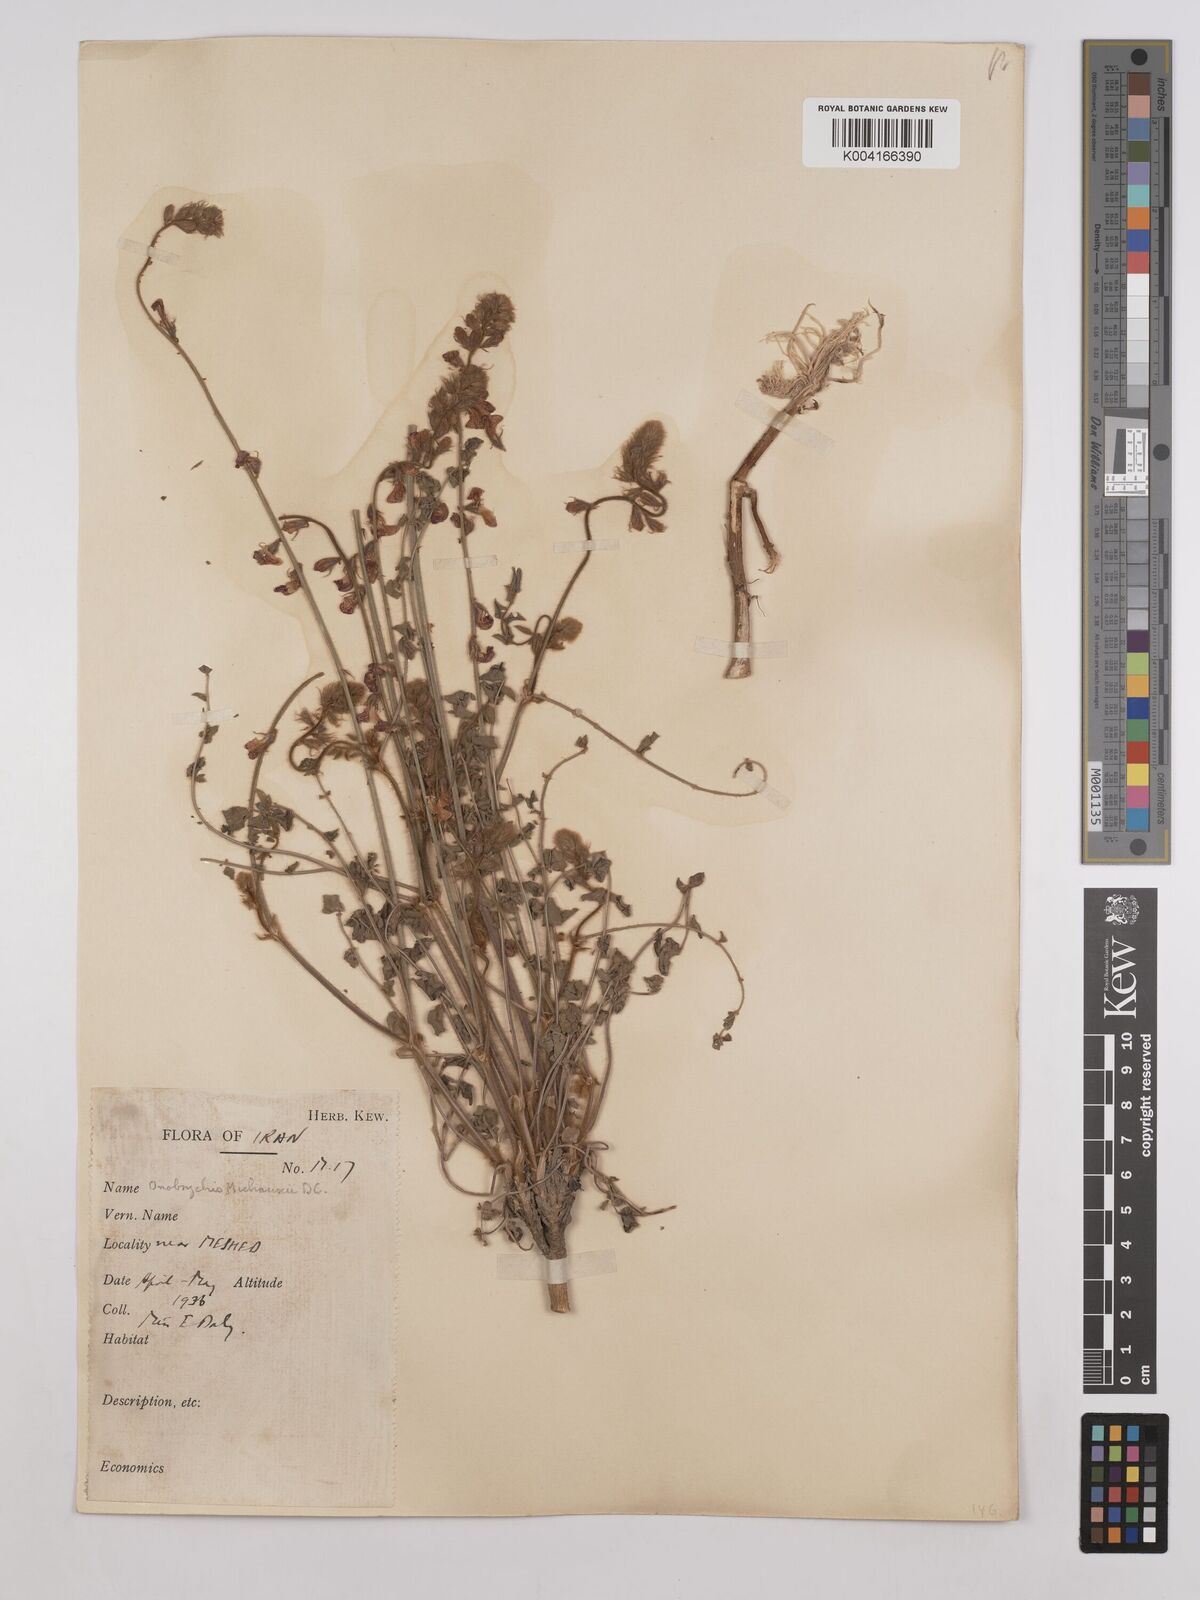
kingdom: Plantae
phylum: Tracheophyta
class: Magnoliopsida
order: Fabales
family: Fabaceae
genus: Onobrychis
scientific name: Onobrychis michauxii
